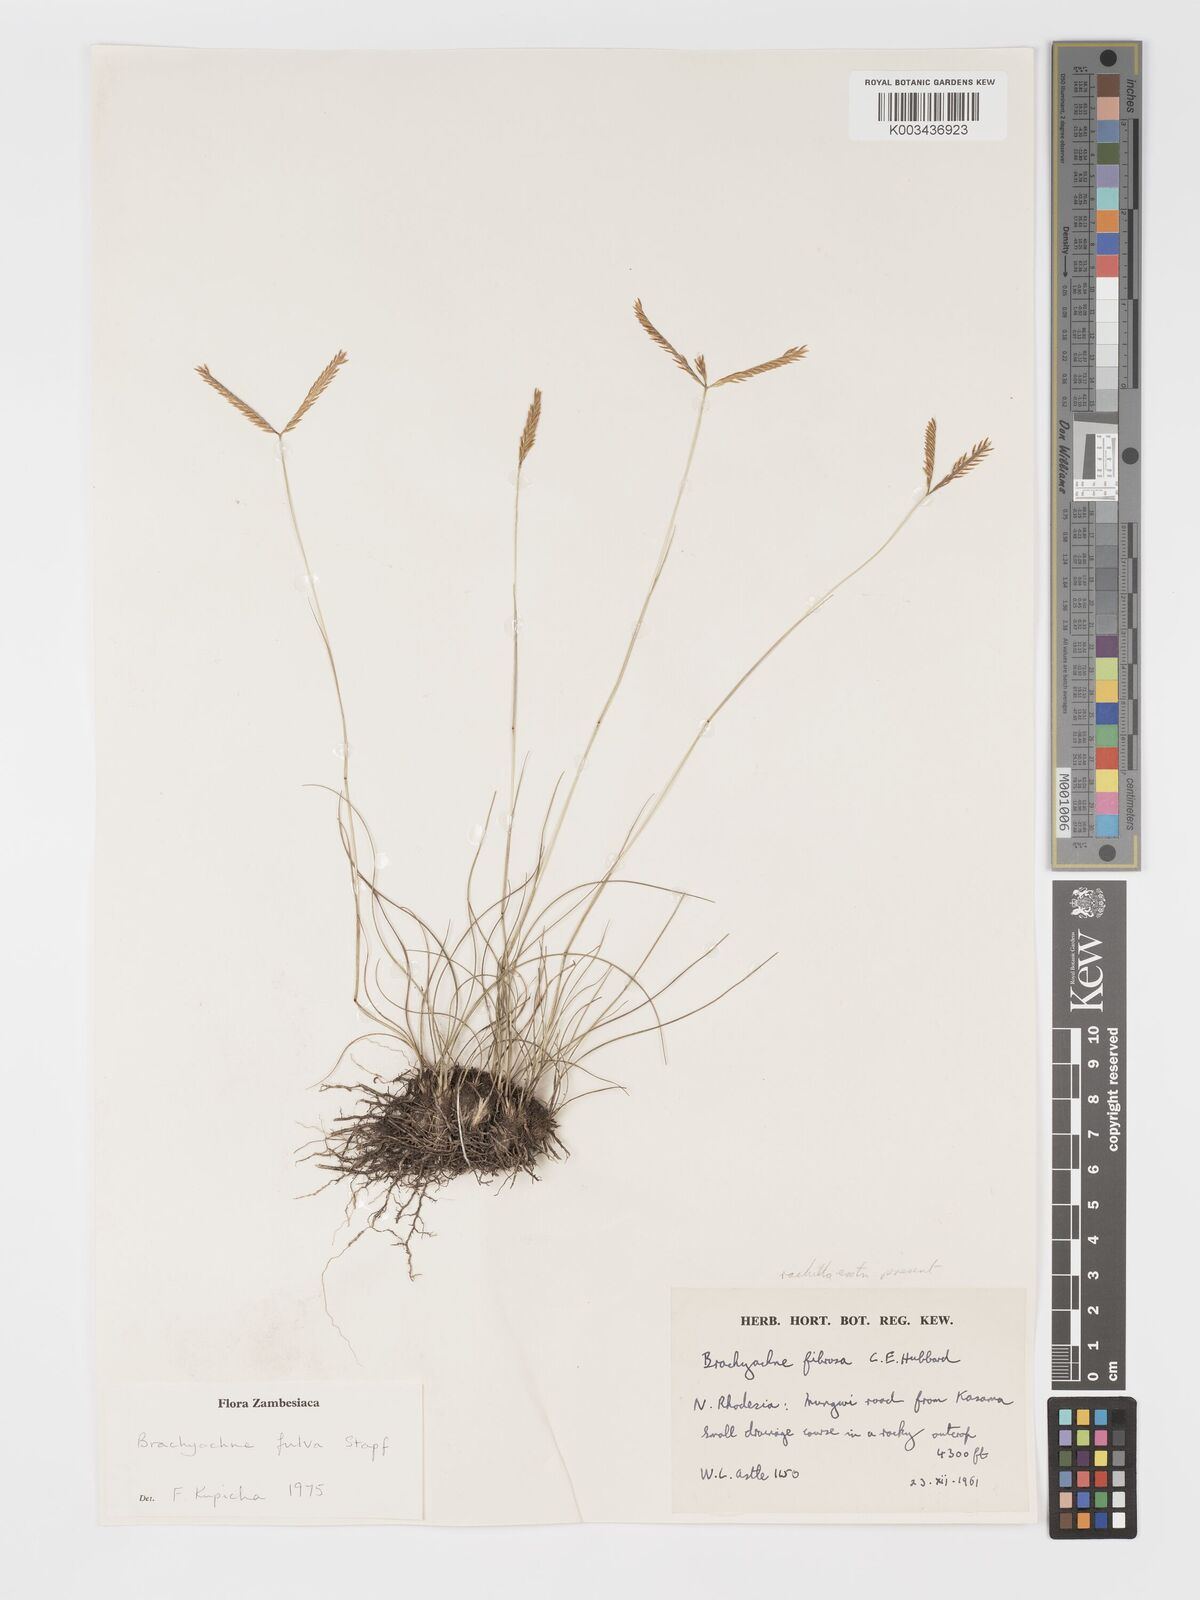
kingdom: Plantae
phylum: Tracheophyta
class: Liliopsida
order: Poales
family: Poaceae
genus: Micrachne
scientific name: Micrachne fulva
